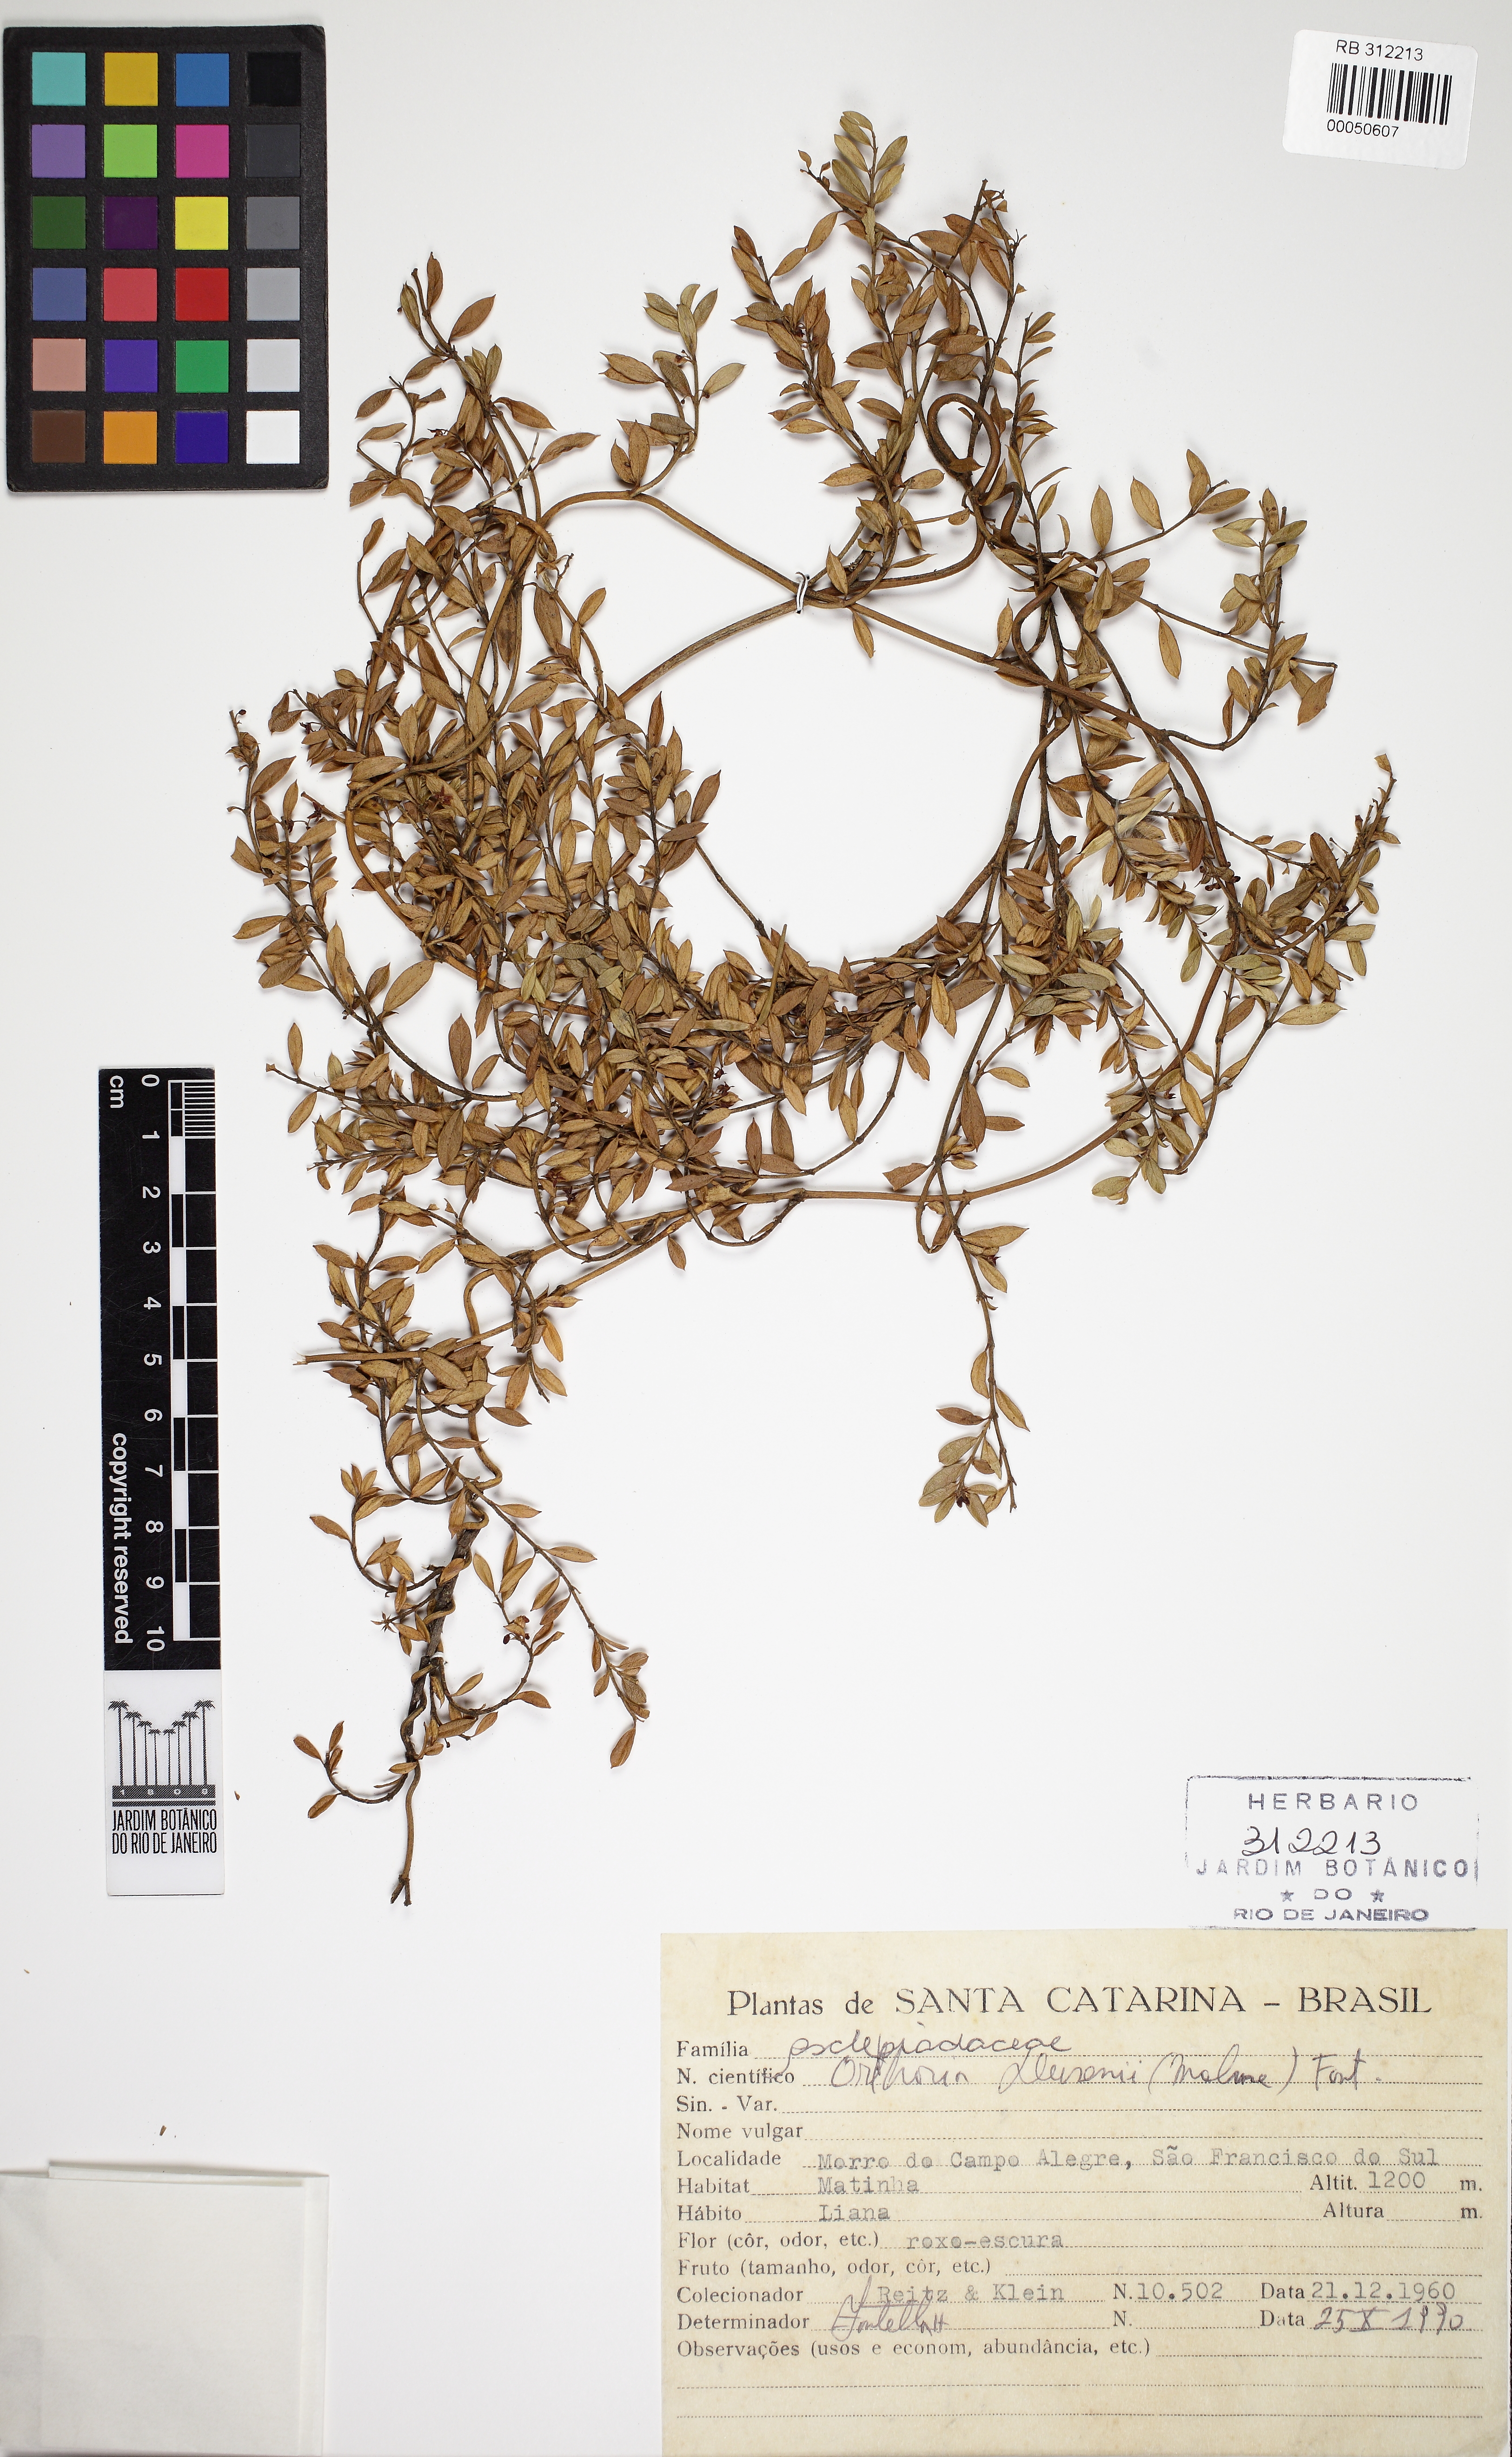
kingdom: Plantae
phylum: Tracheophyta
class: Magnoliopsida
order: Gentianales
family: Apocynaceae
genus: Orthosia
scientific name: Orthosia dusenii
